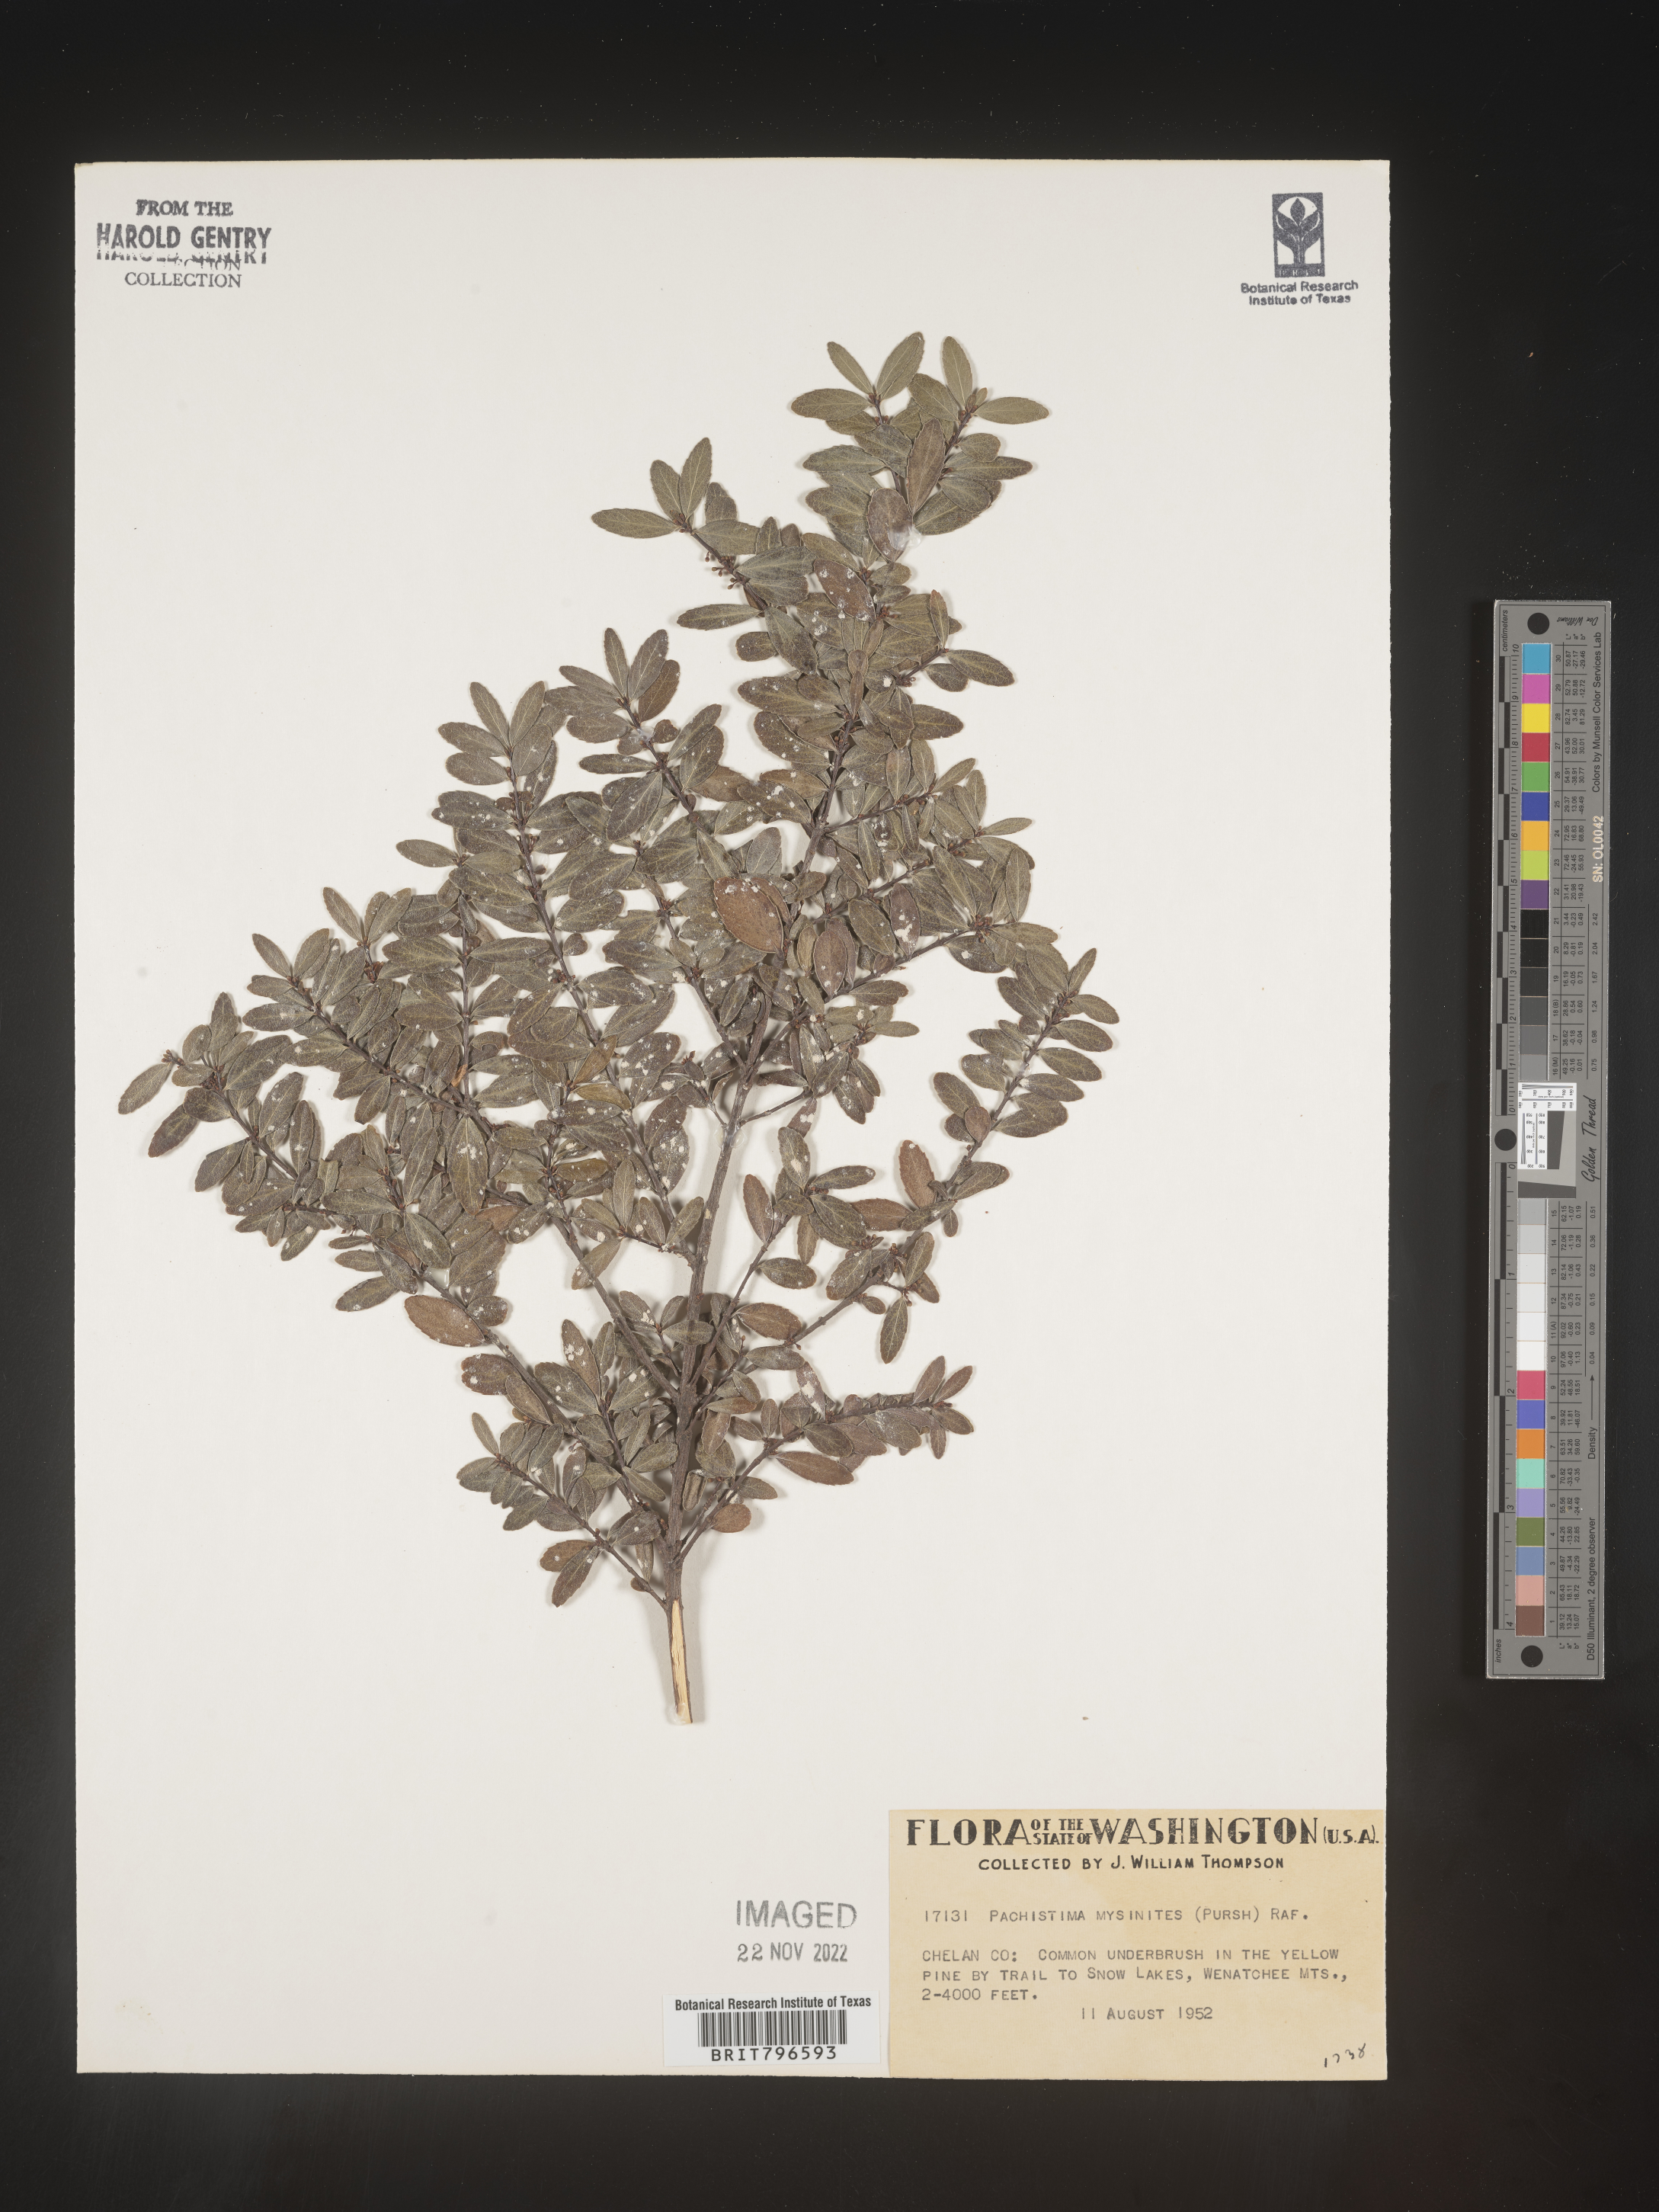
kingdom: Plantae
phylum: Tracheophyta
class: Magnoliopsida
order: Celastrales
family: Celastraceae
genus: Paxistima
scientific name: Paxistima myrsinites
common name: Mountain-lover
